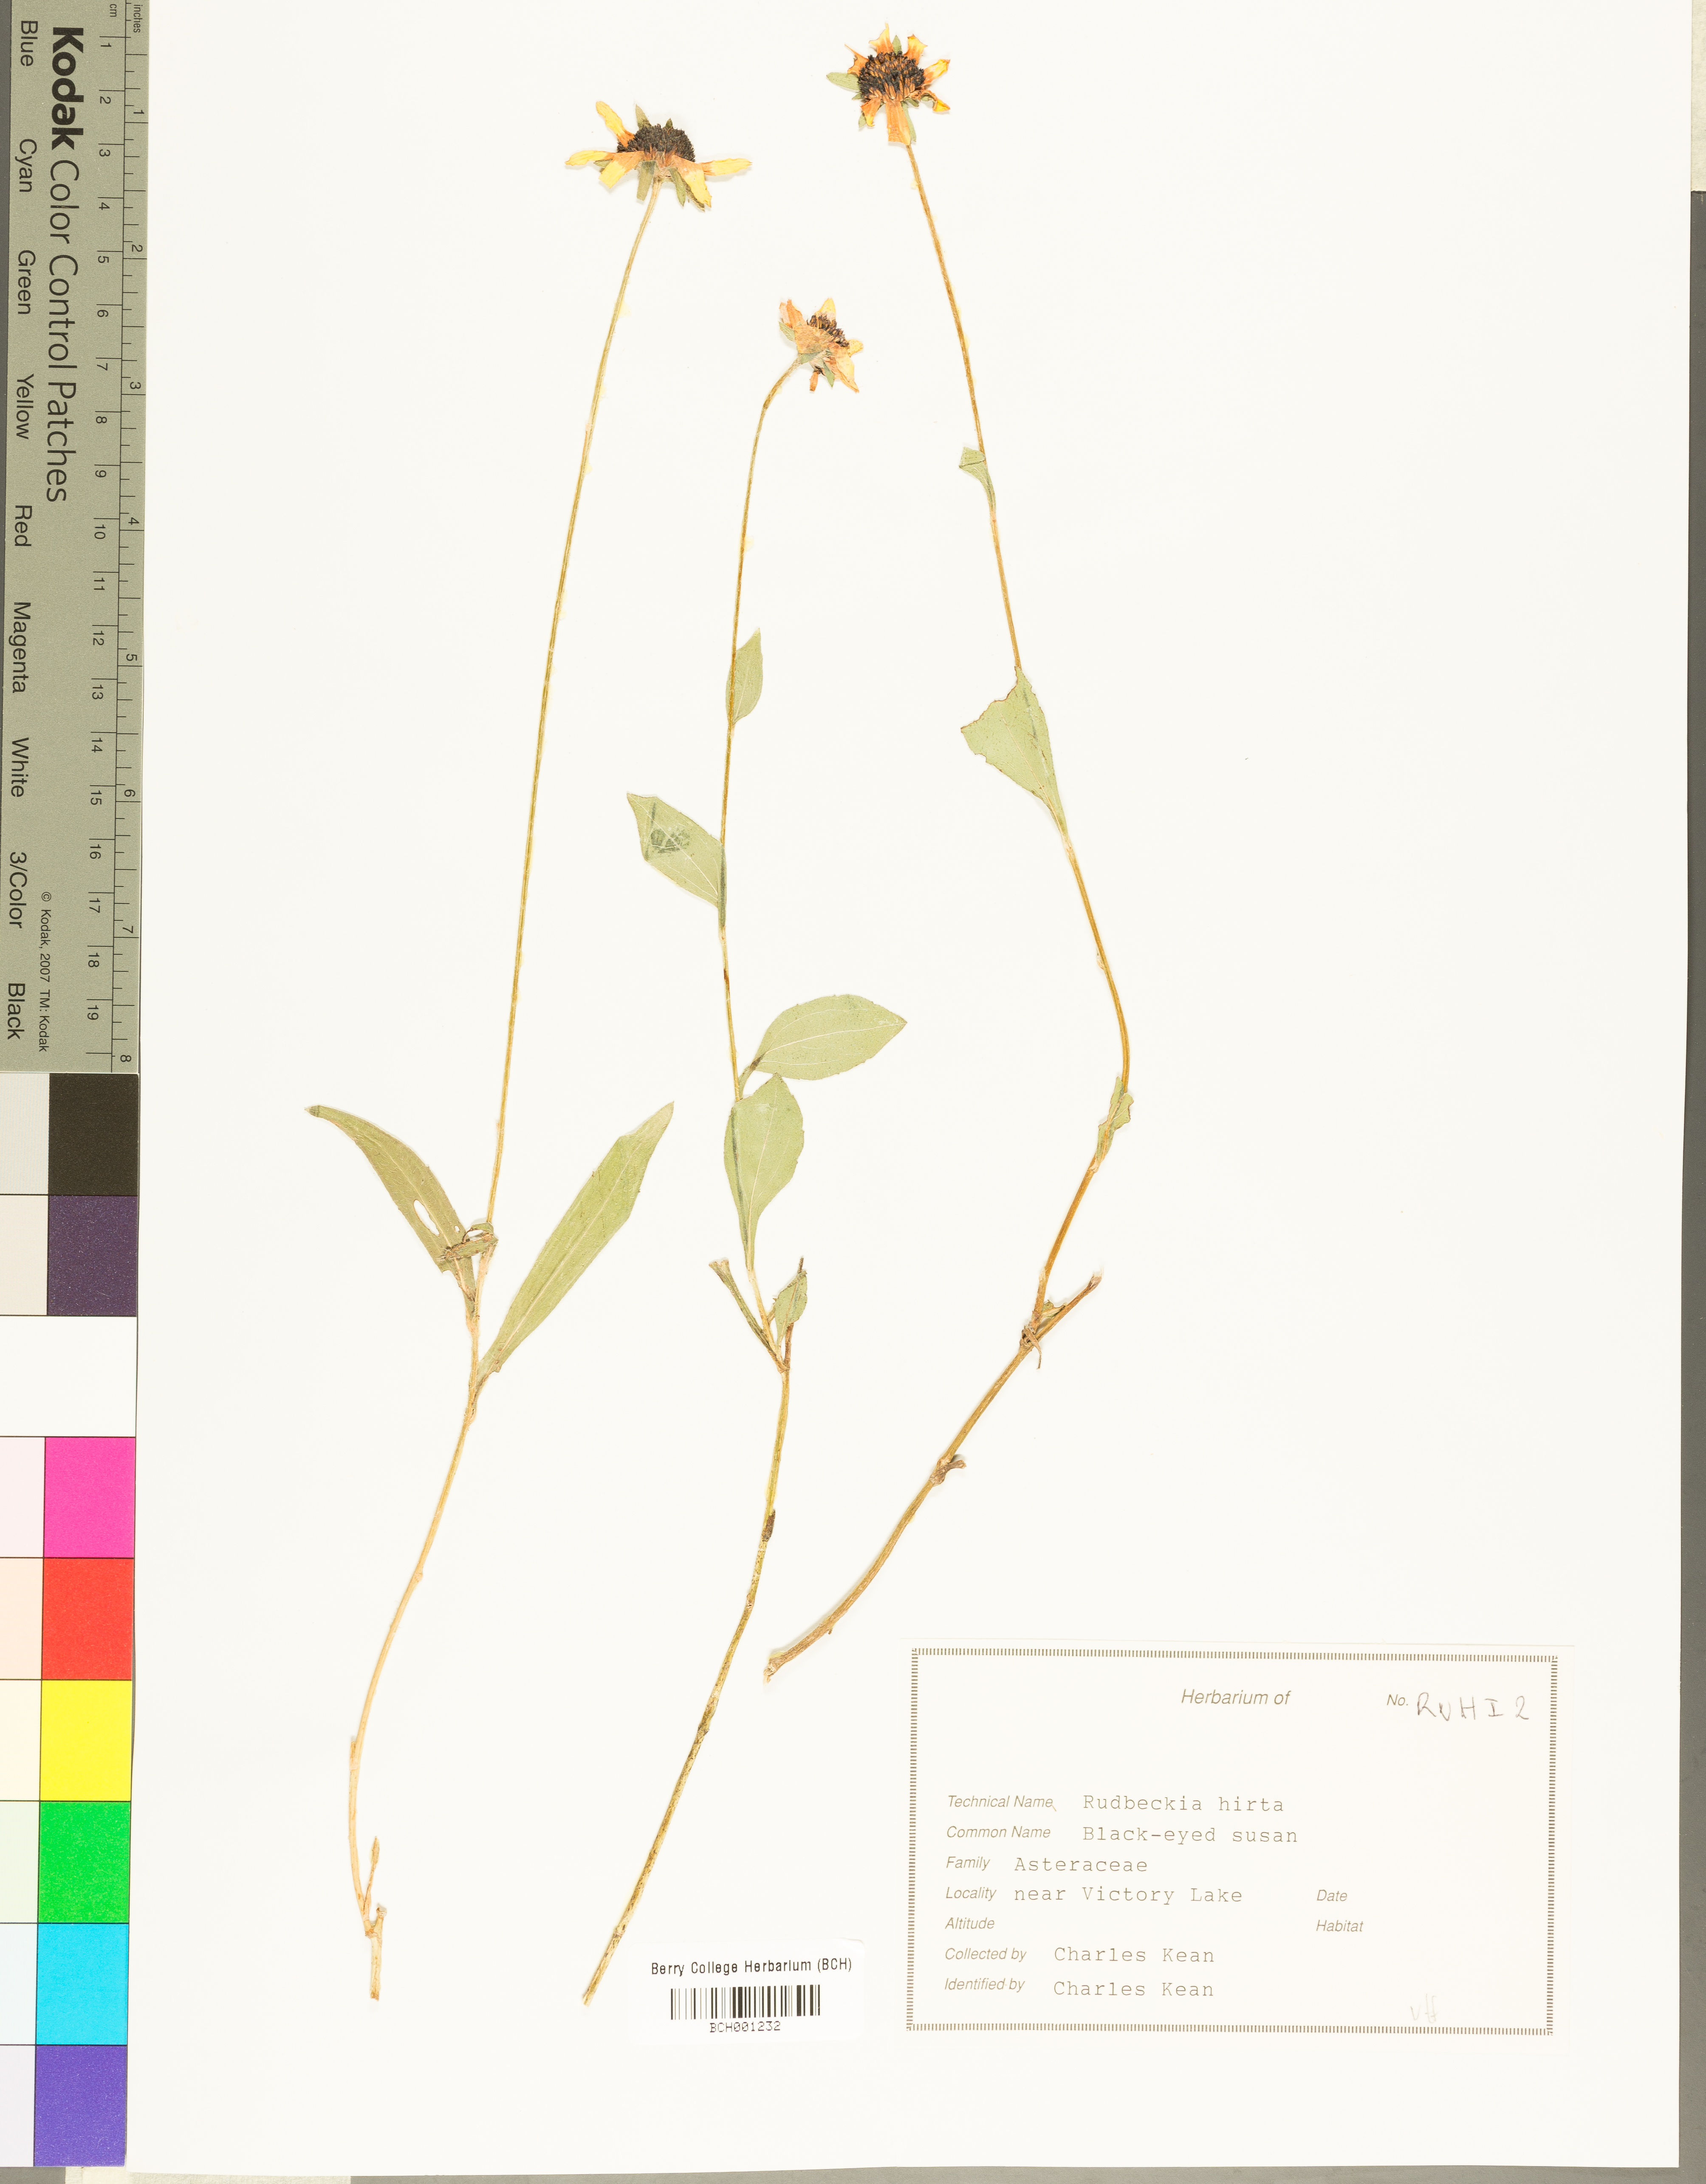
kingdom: Plantae
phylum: Tracheophyta
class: Magnoliopsida
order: Asterales
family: Asteraceae
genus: Rudbeckia
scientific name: Rudbeckia hirta
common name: Black-eyed-susan
